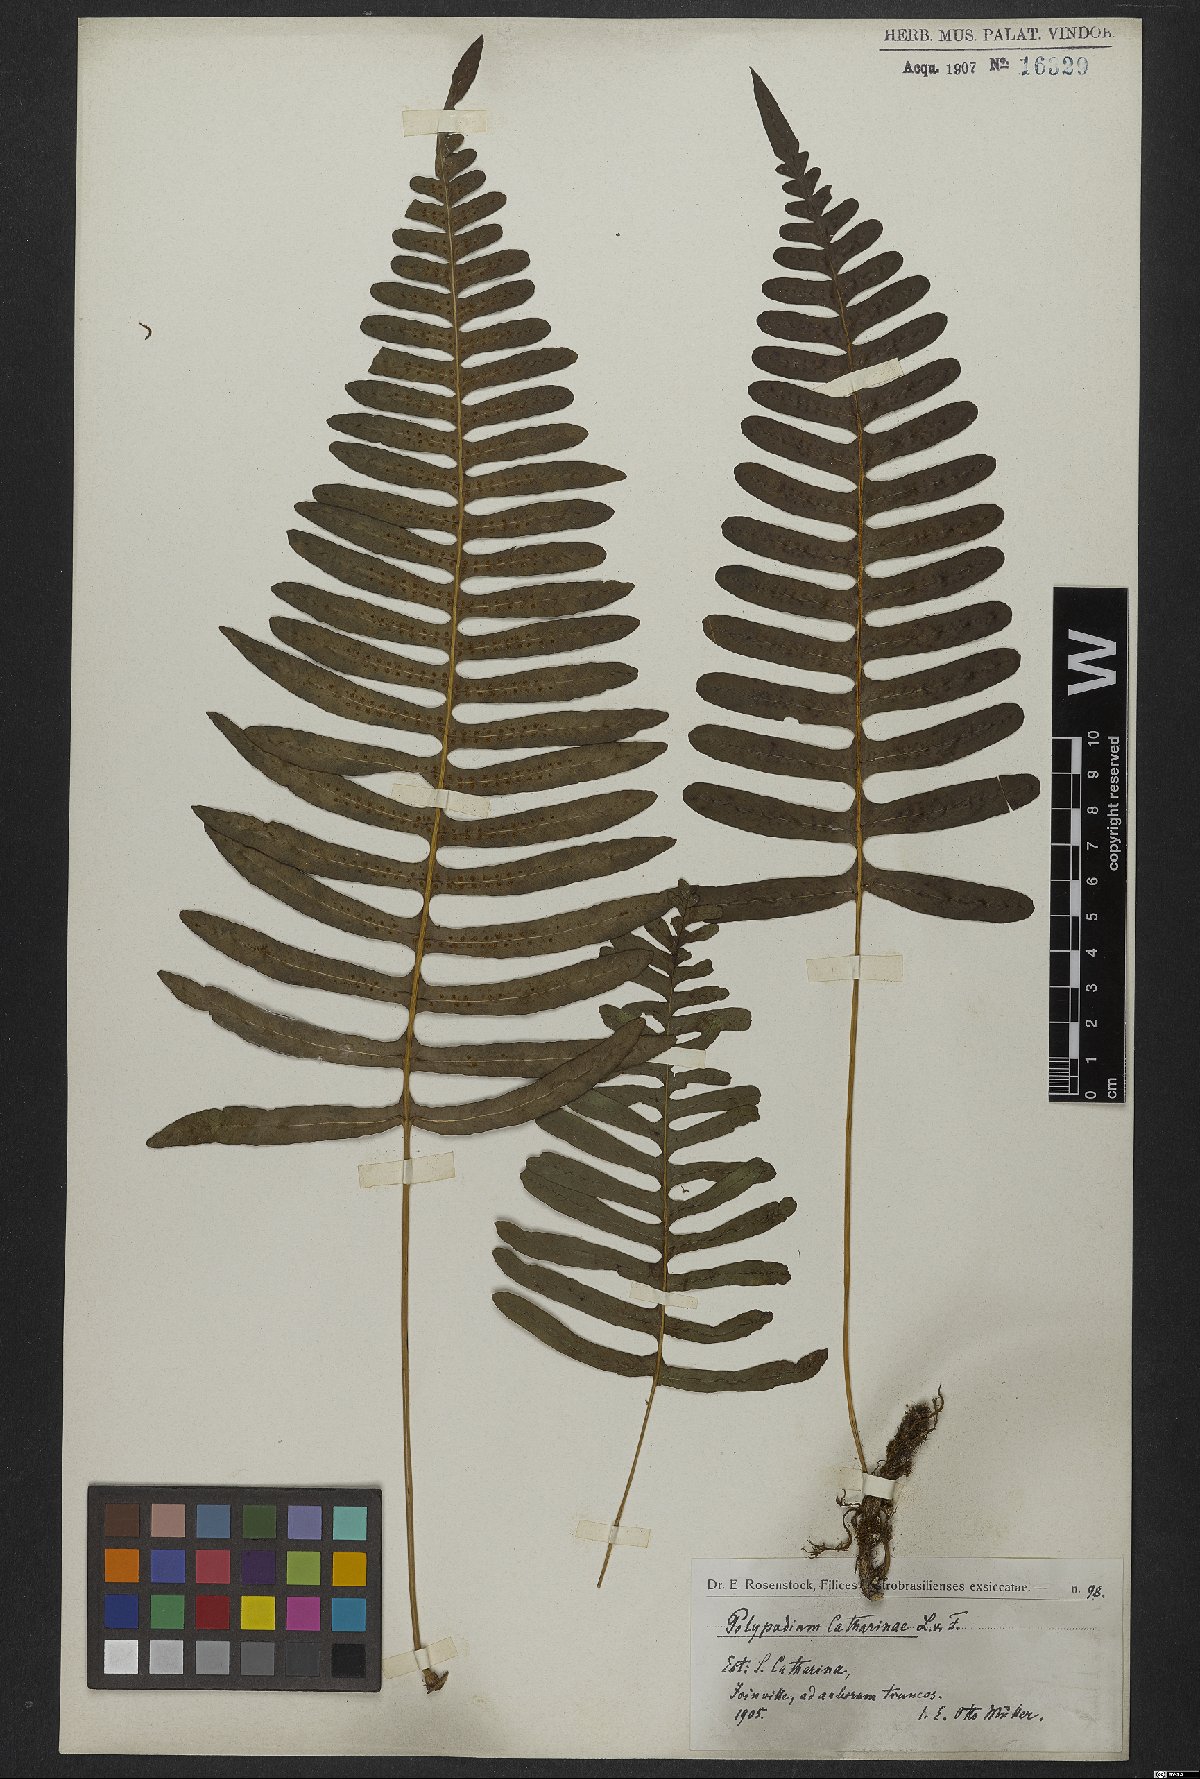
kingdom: Plantae
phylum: Tracheophyta
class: Polypodiopsida
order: Polypodiales
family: Polypodiaceae
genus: Serpocaulon
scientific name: Serpocaulon catharinae
